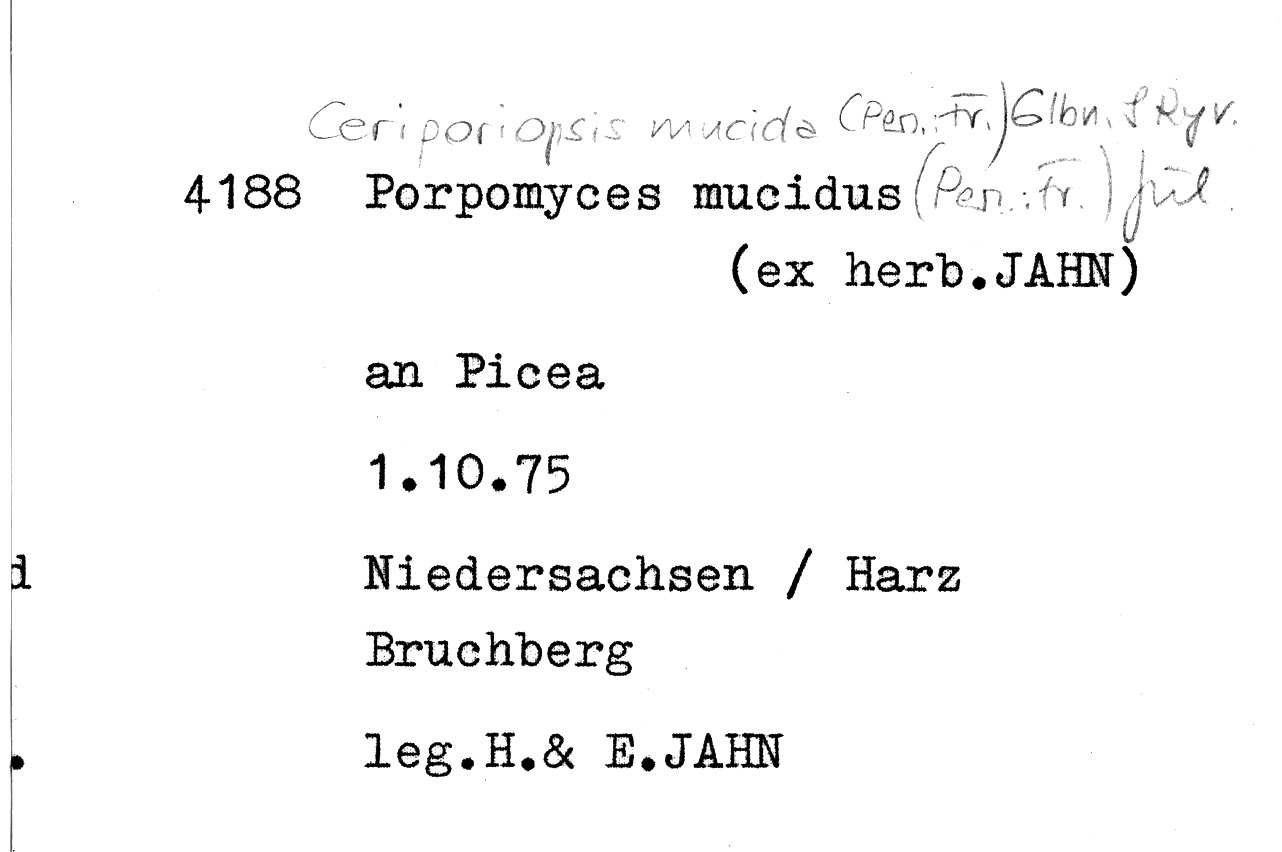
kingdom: Plantae
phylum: Tracheophyta
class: Pinopsida
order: Pinales
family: Pinaceae
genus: Picea
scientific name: Picea
